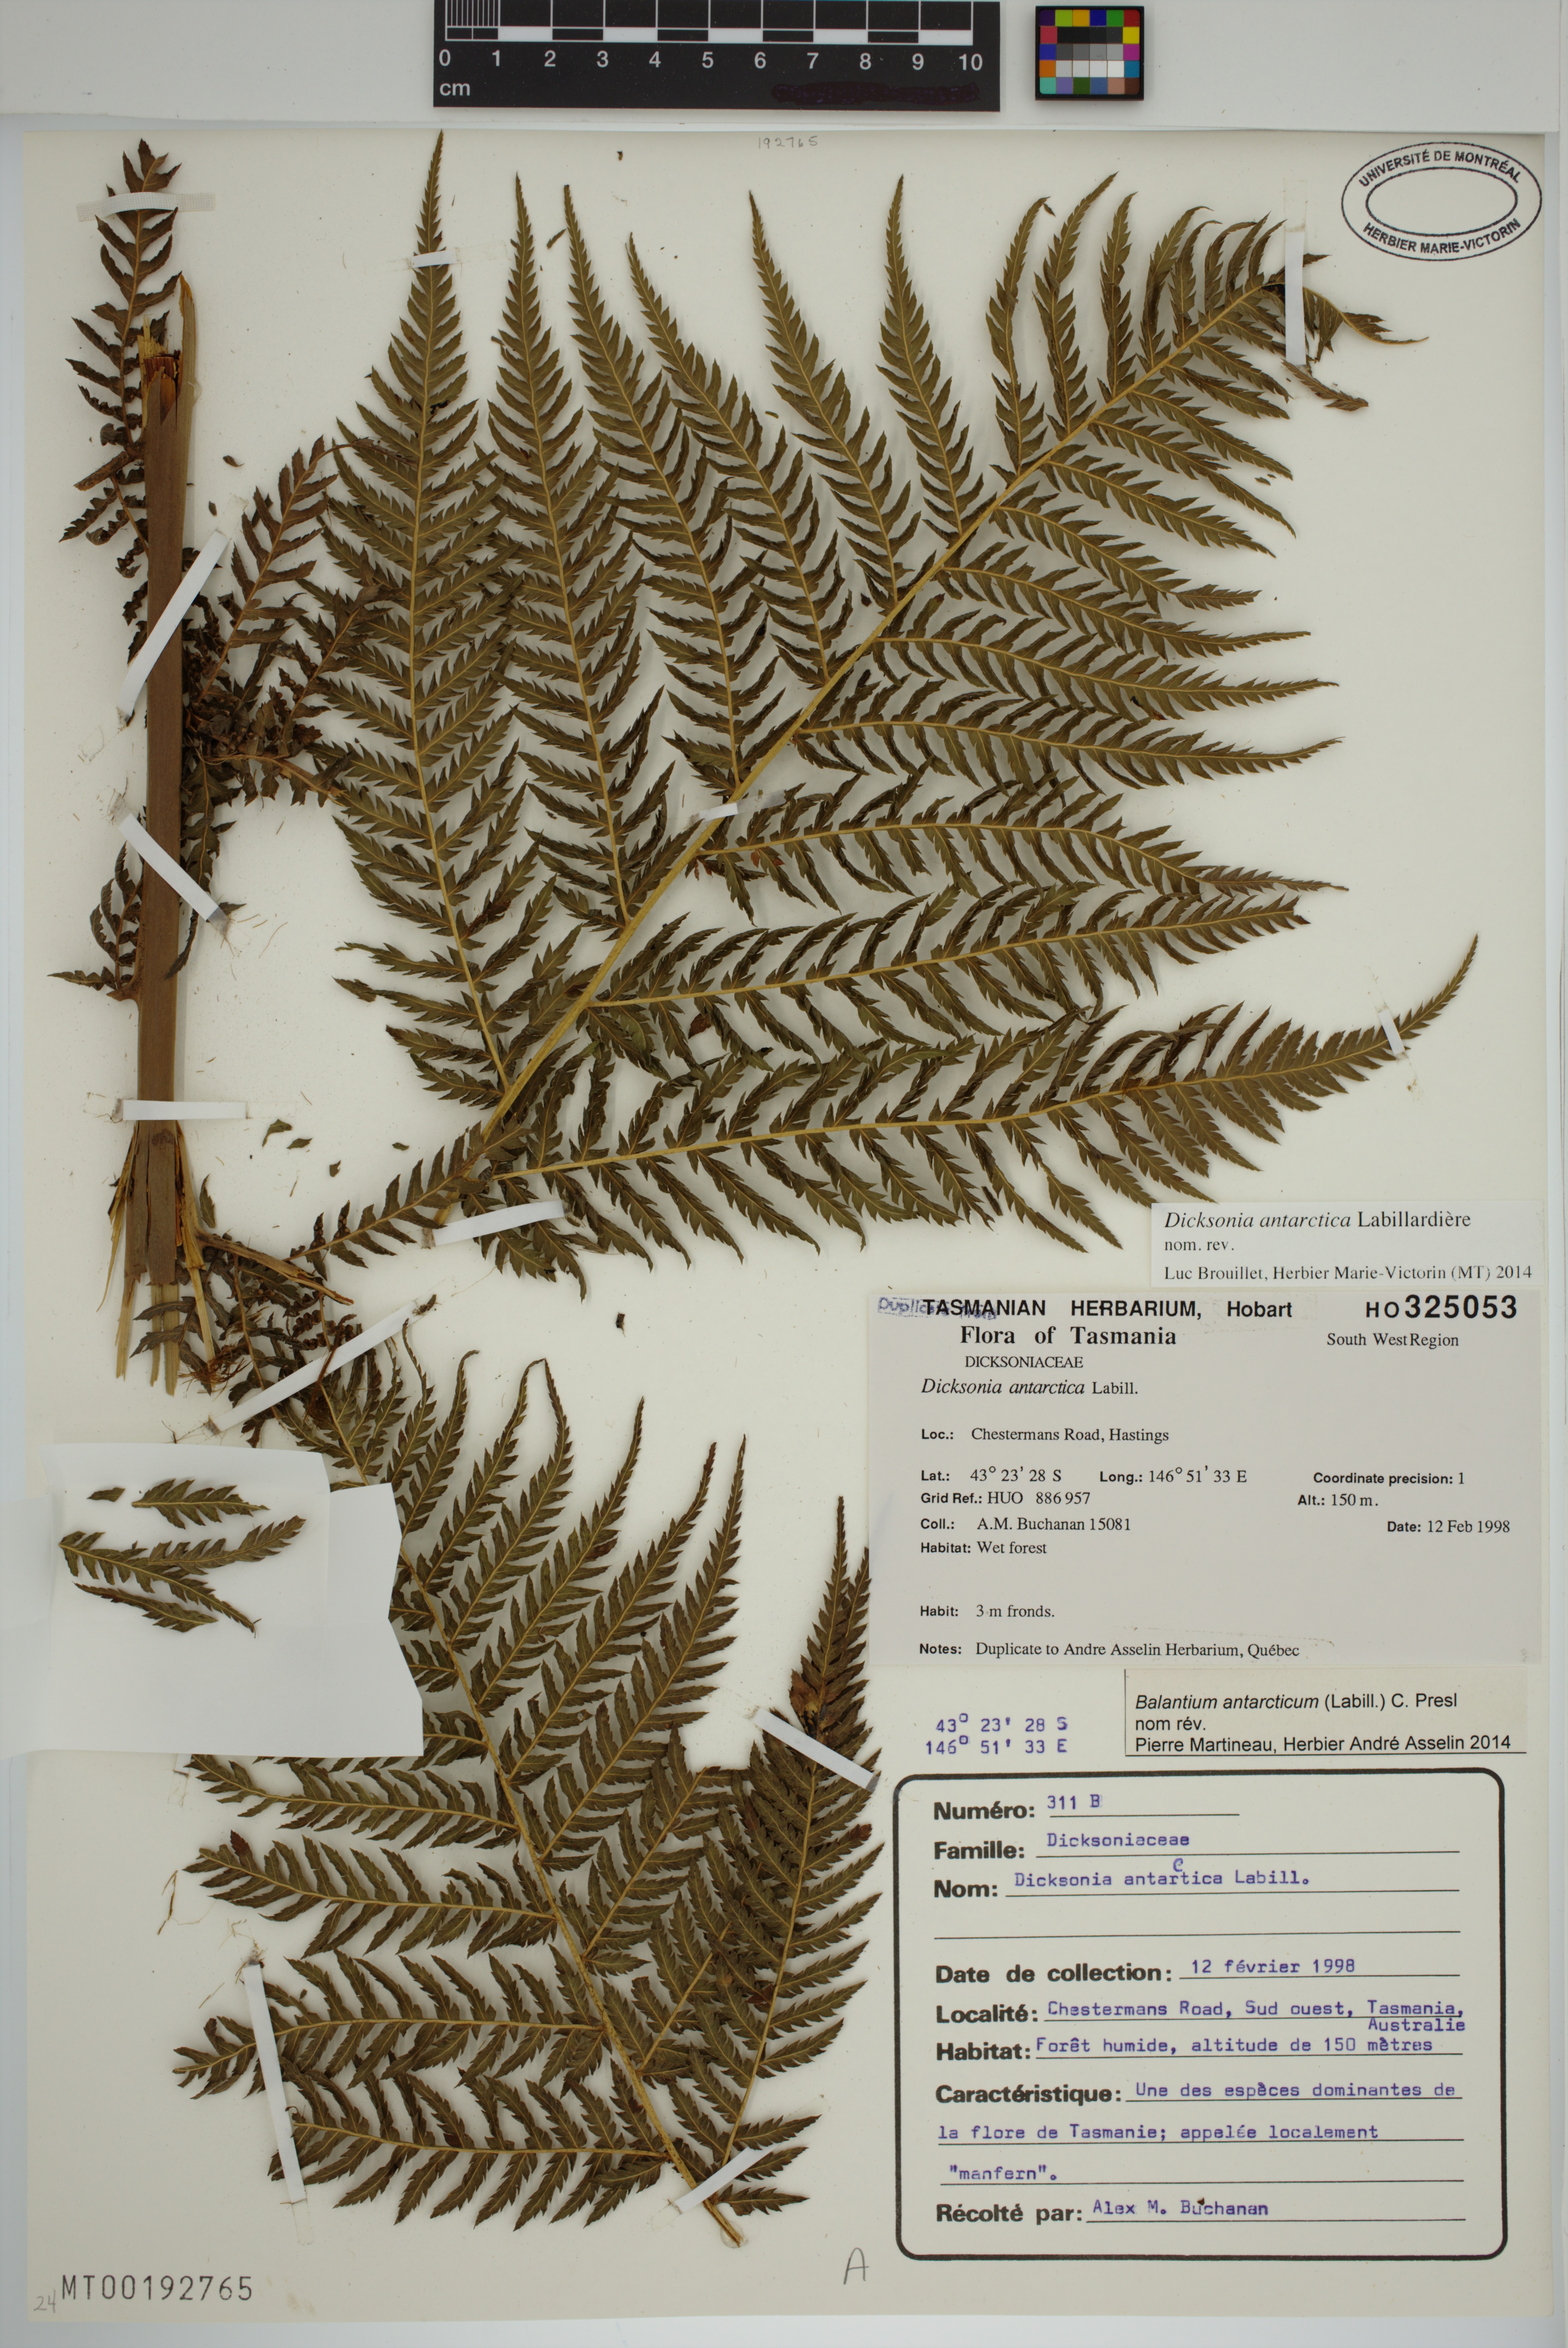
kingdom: Plantae
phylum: Tracheophyta
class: Polypodiopsida
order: Cyatheales
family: Dicksoniaceae
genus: Dicksonia
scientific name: Dicksonia antarctica
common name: Australian treefern
